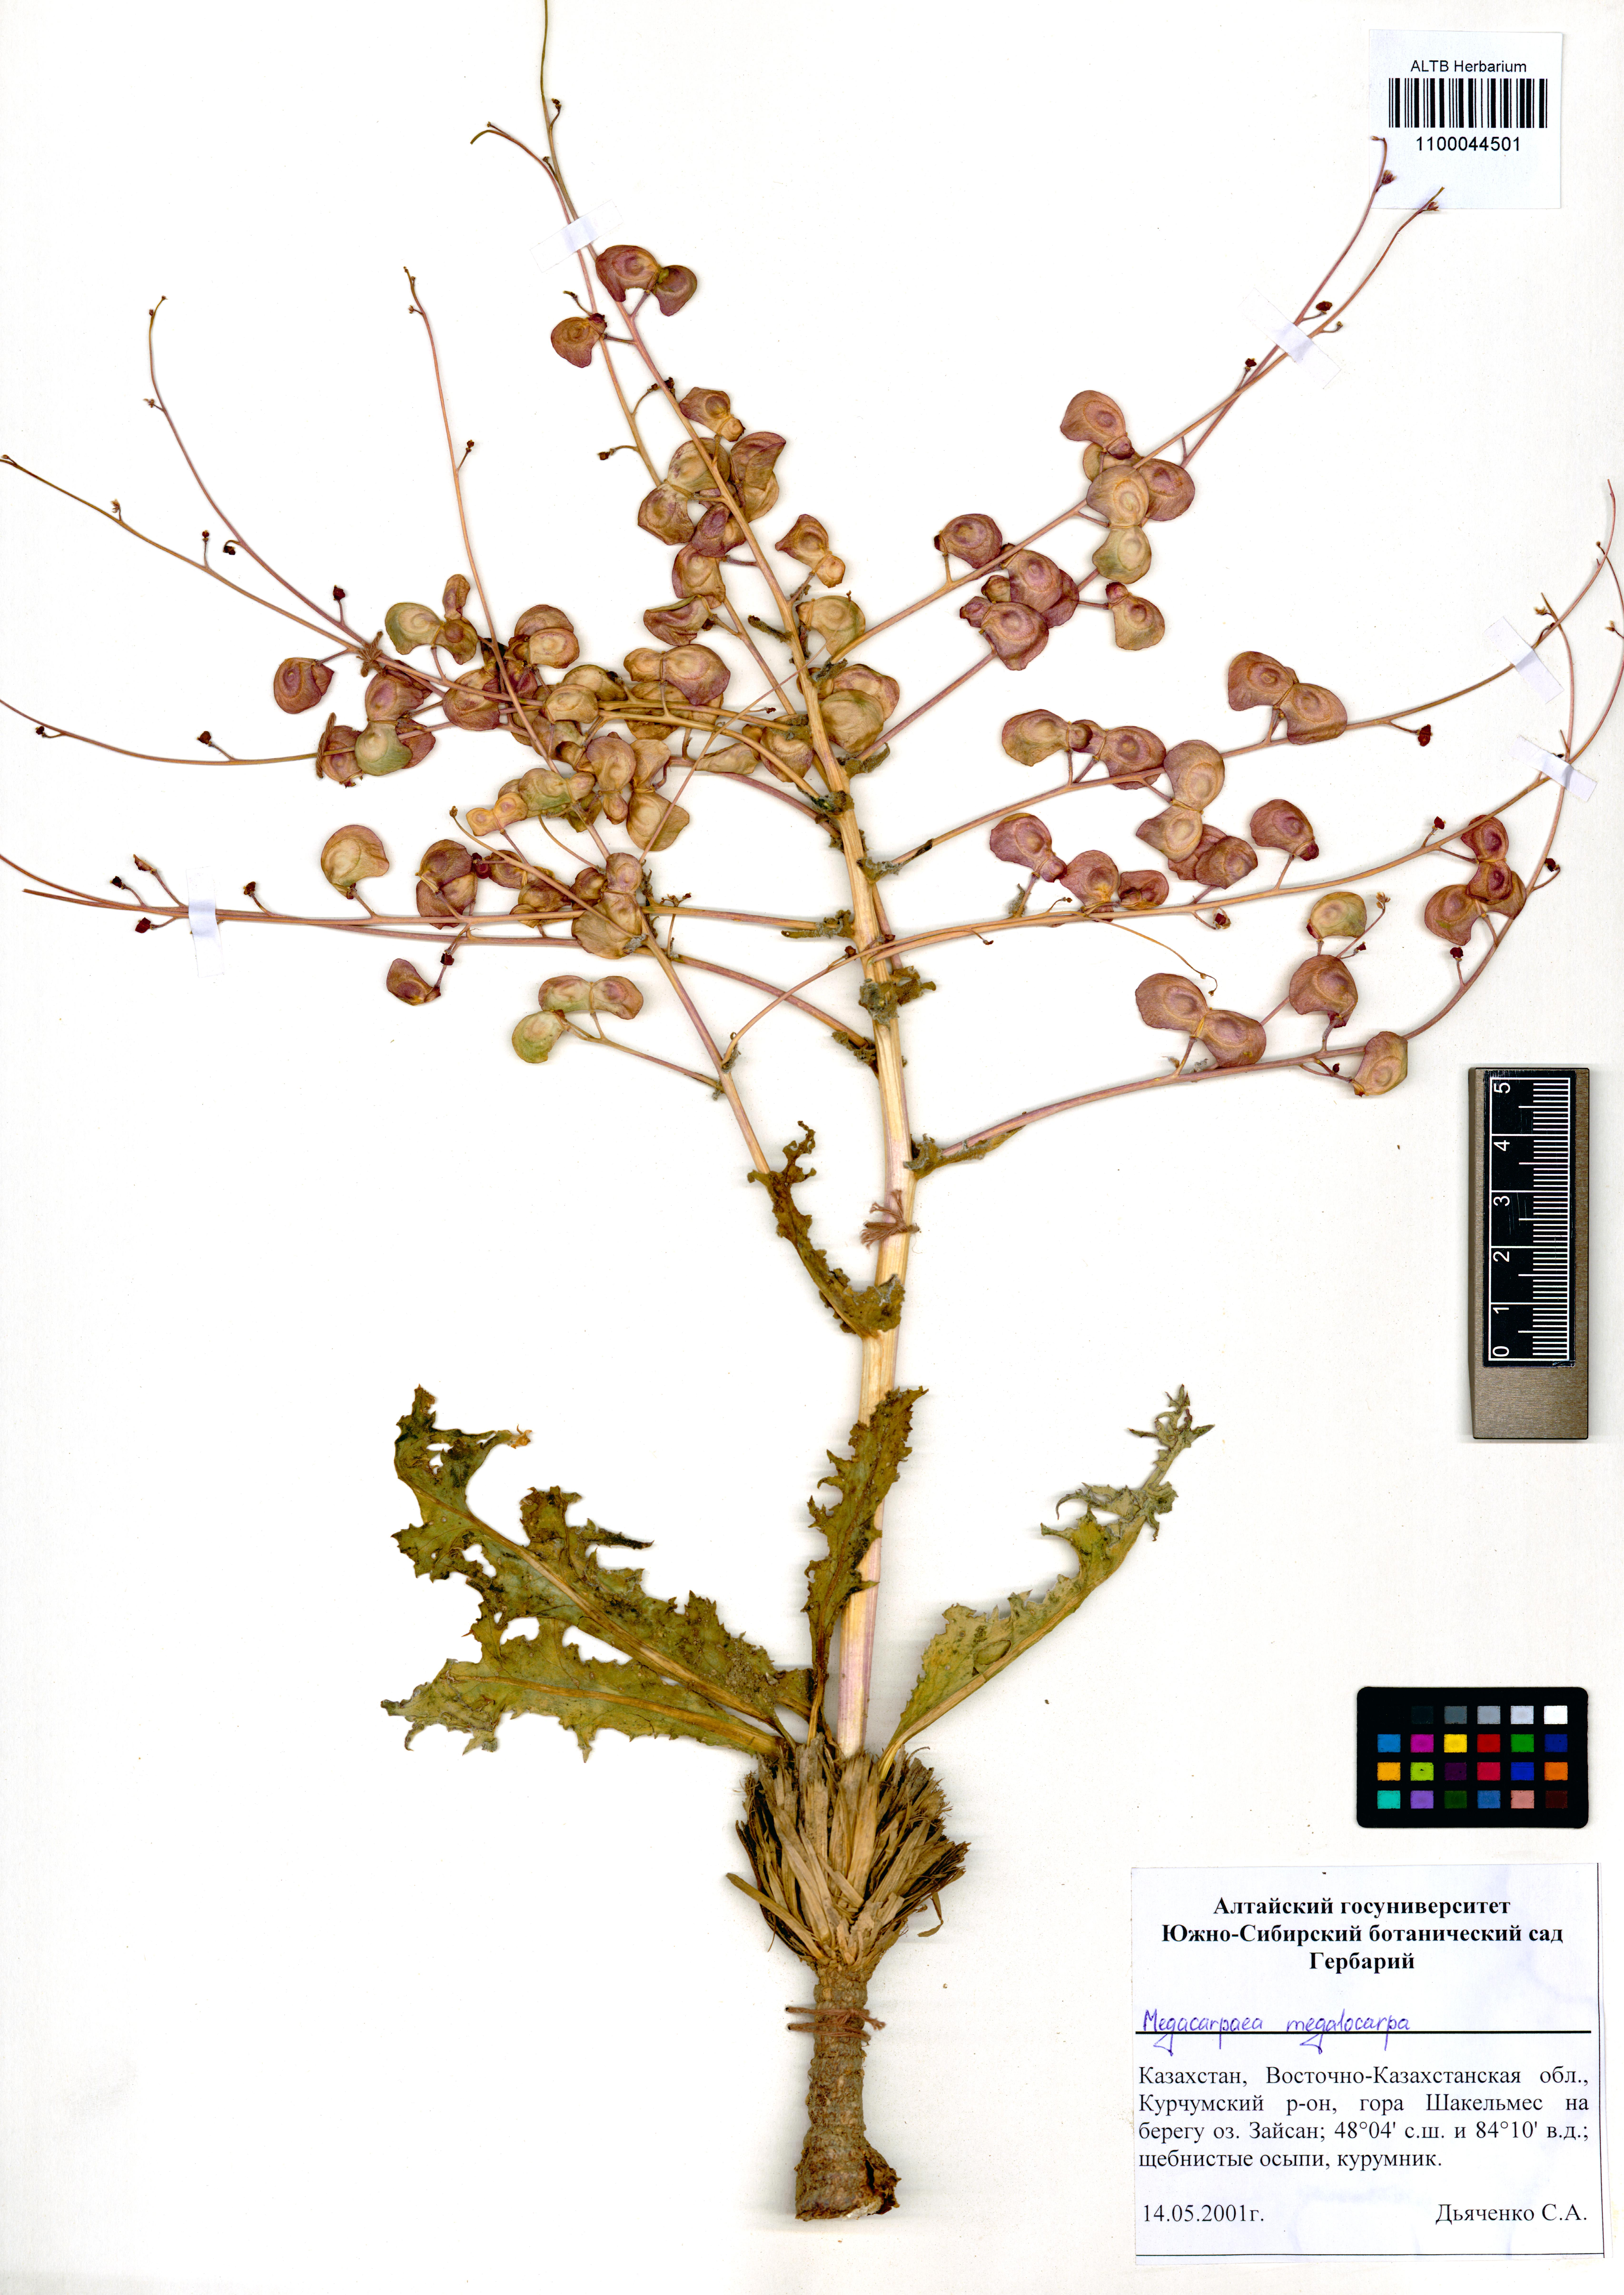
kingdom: Plantae
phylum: Tracheophyta
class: Magnoliopsida
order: Brassicales
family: Brassicaceae
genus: Megacarpaea
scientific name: Megacarpaea megalocarpa
